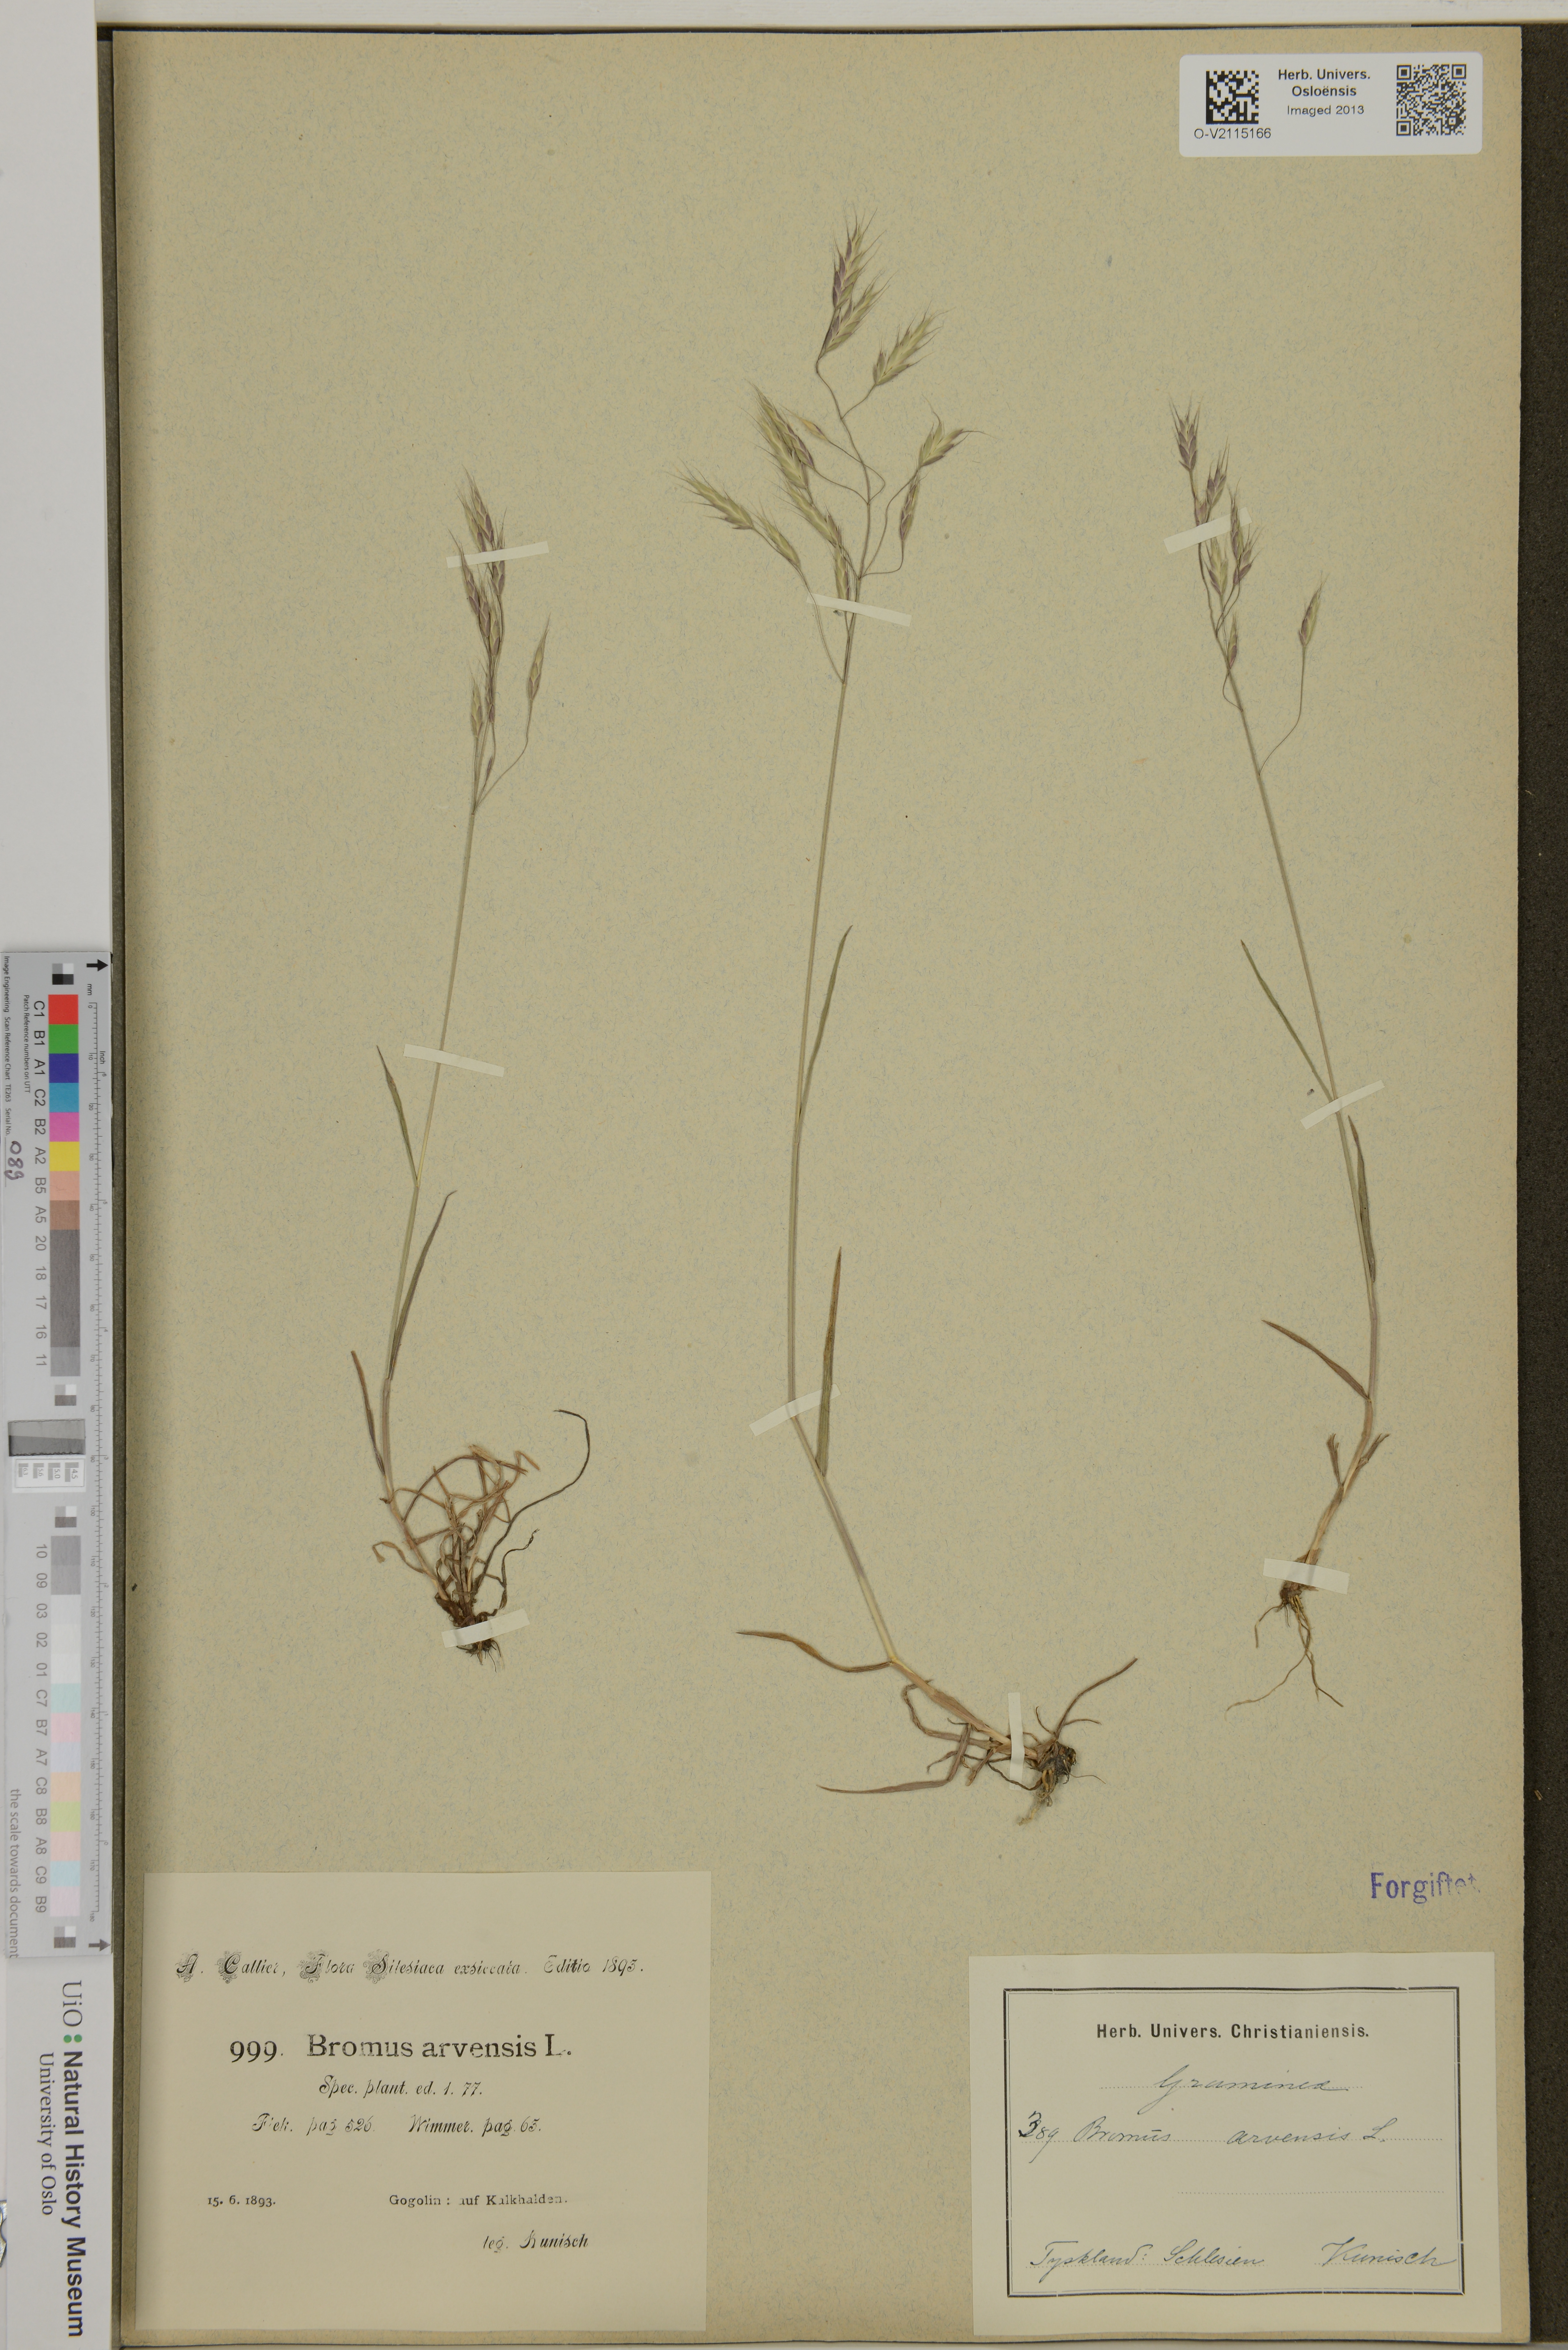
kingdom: Plantae
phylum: Tracheophyta
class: Liliopsida
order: Poales
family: Poaceae
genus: Bromus
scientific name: Bromus arvensis
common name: Field brome
